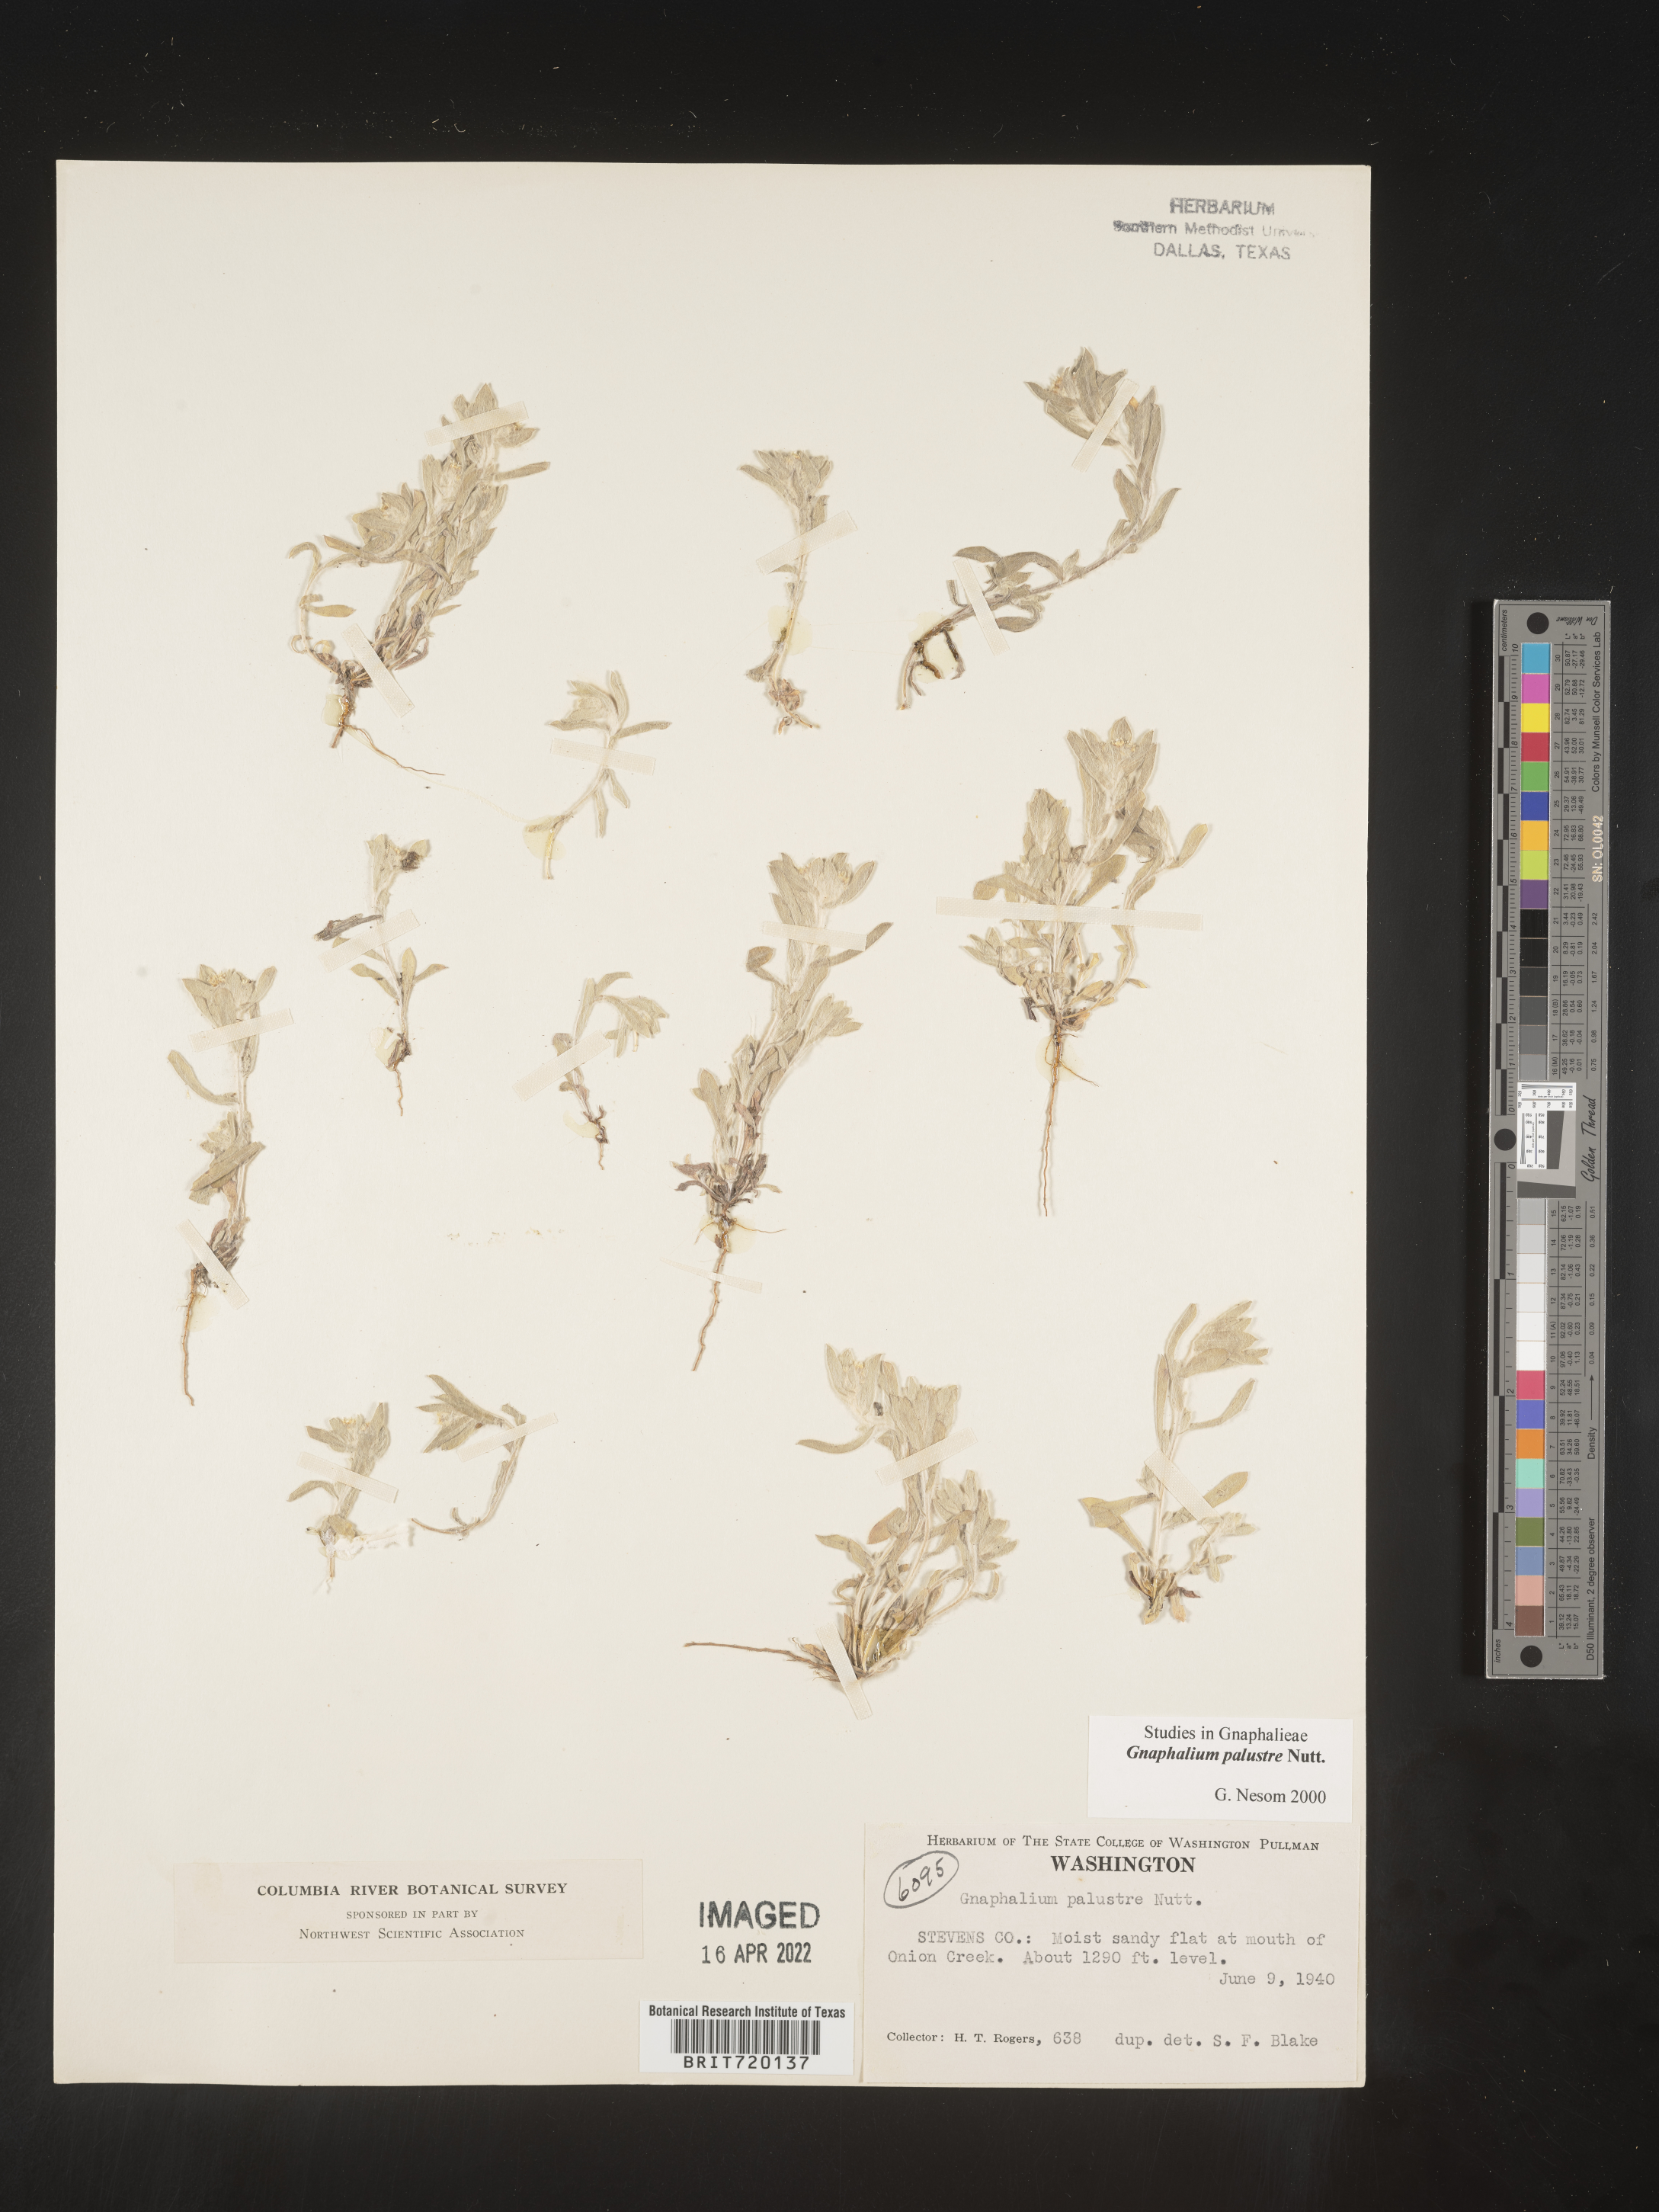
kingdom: Plantae
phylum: Tracheophyta
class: Magnoliopsida
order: Asterales
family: Asteraceae
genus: Gnaphalium
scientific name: Gnaphalium palustre
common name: Western marsh cudweed
